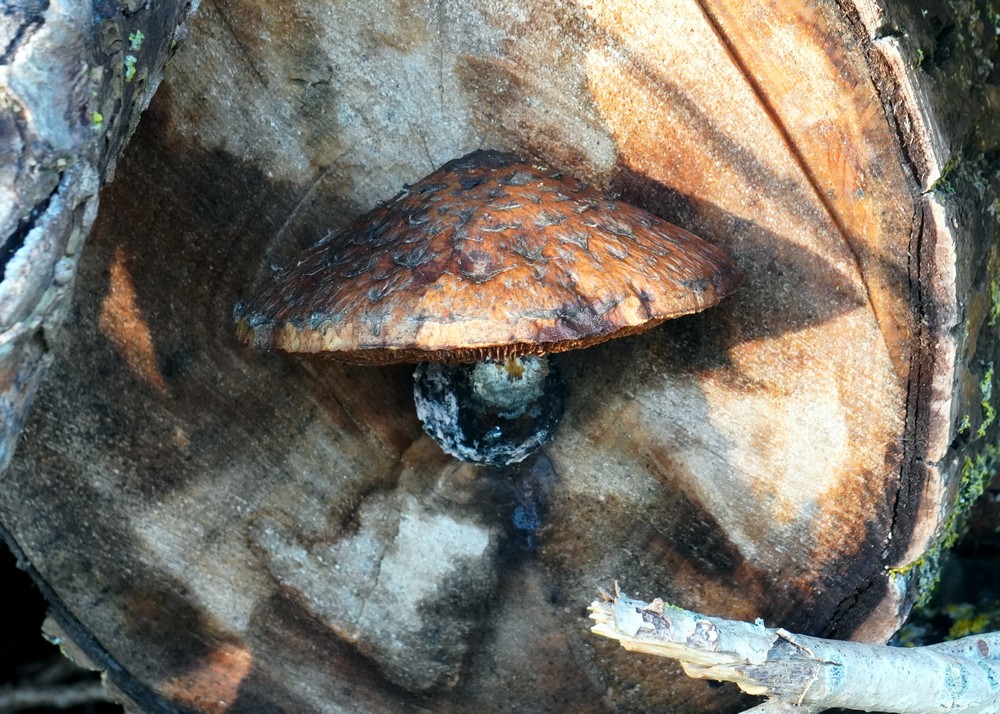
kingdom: Fungi
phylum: Basidiomycota
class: Agaricomycetes
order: Agaricales
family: Strophariaceae
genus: Pholiota
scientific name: Pholiota populnea
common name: poppel-kæmpeskælhat
